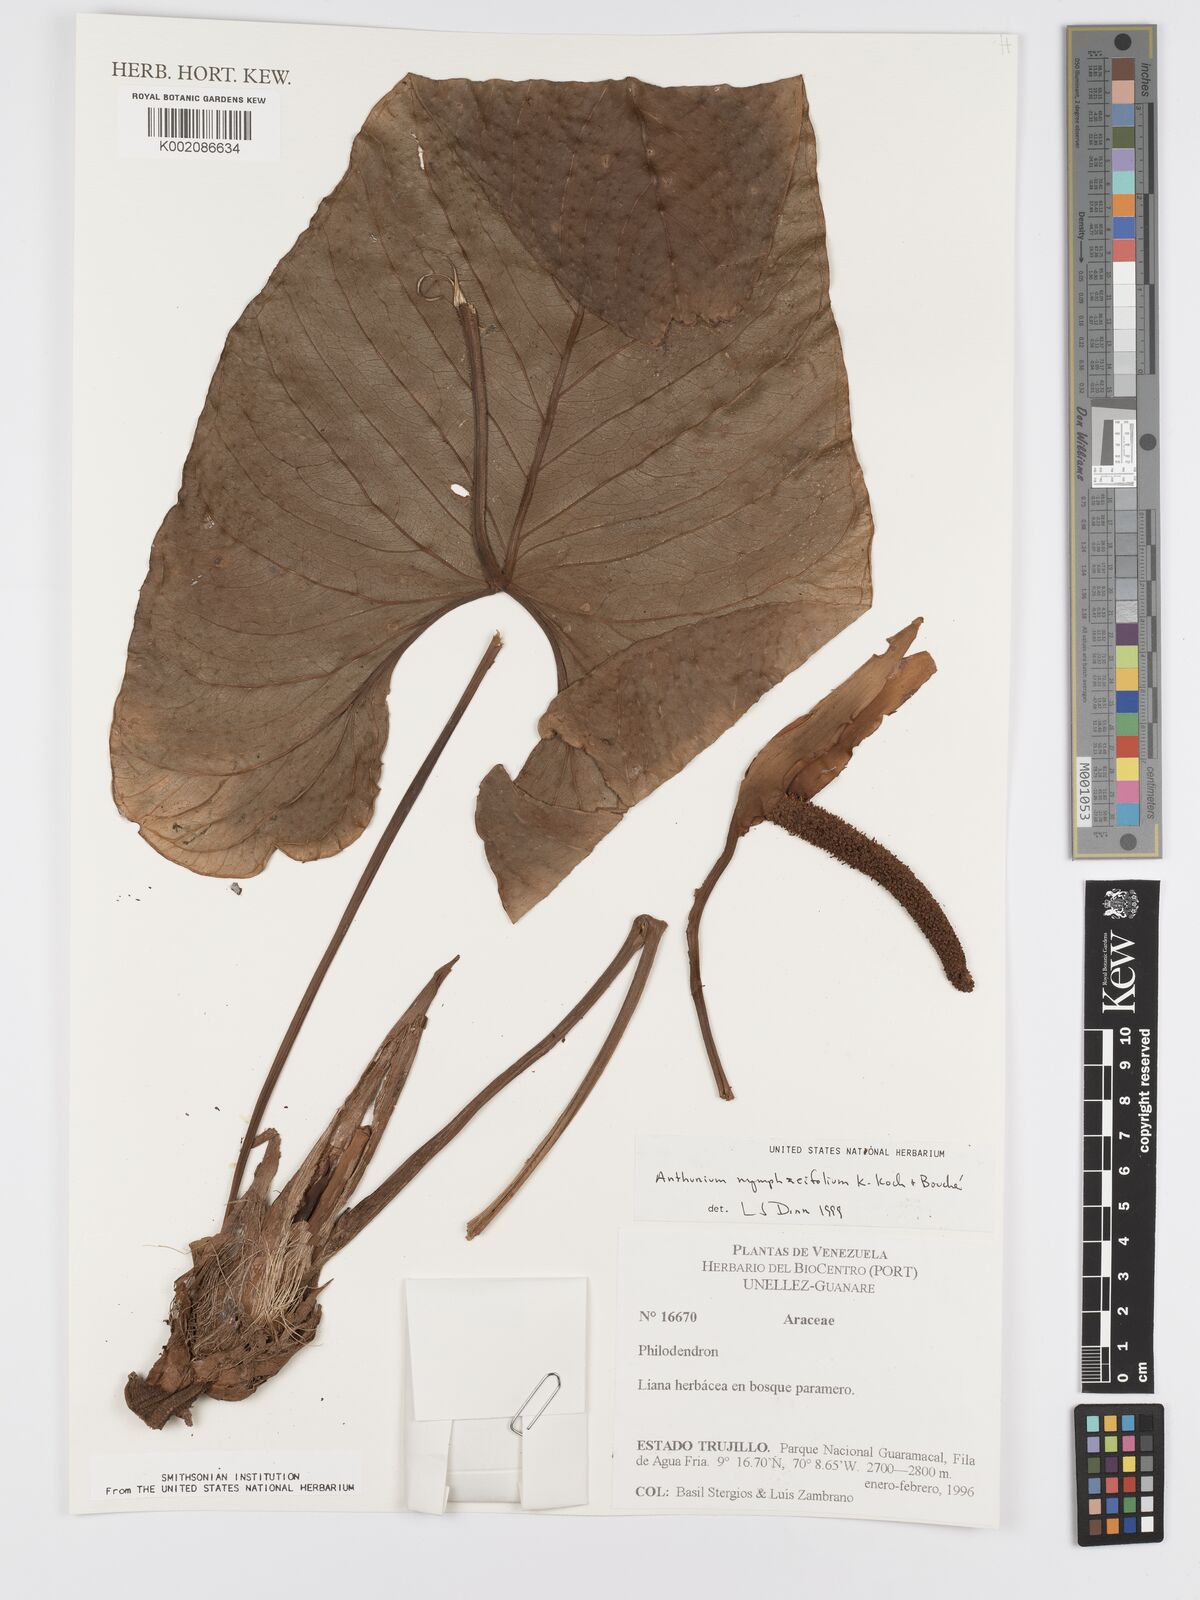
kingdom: Plantae
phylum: Tracheophyta
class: Liliopsida
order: Alismatales
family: Araceae
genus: Anthurium
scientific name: Anthurium nymphaeifolium
